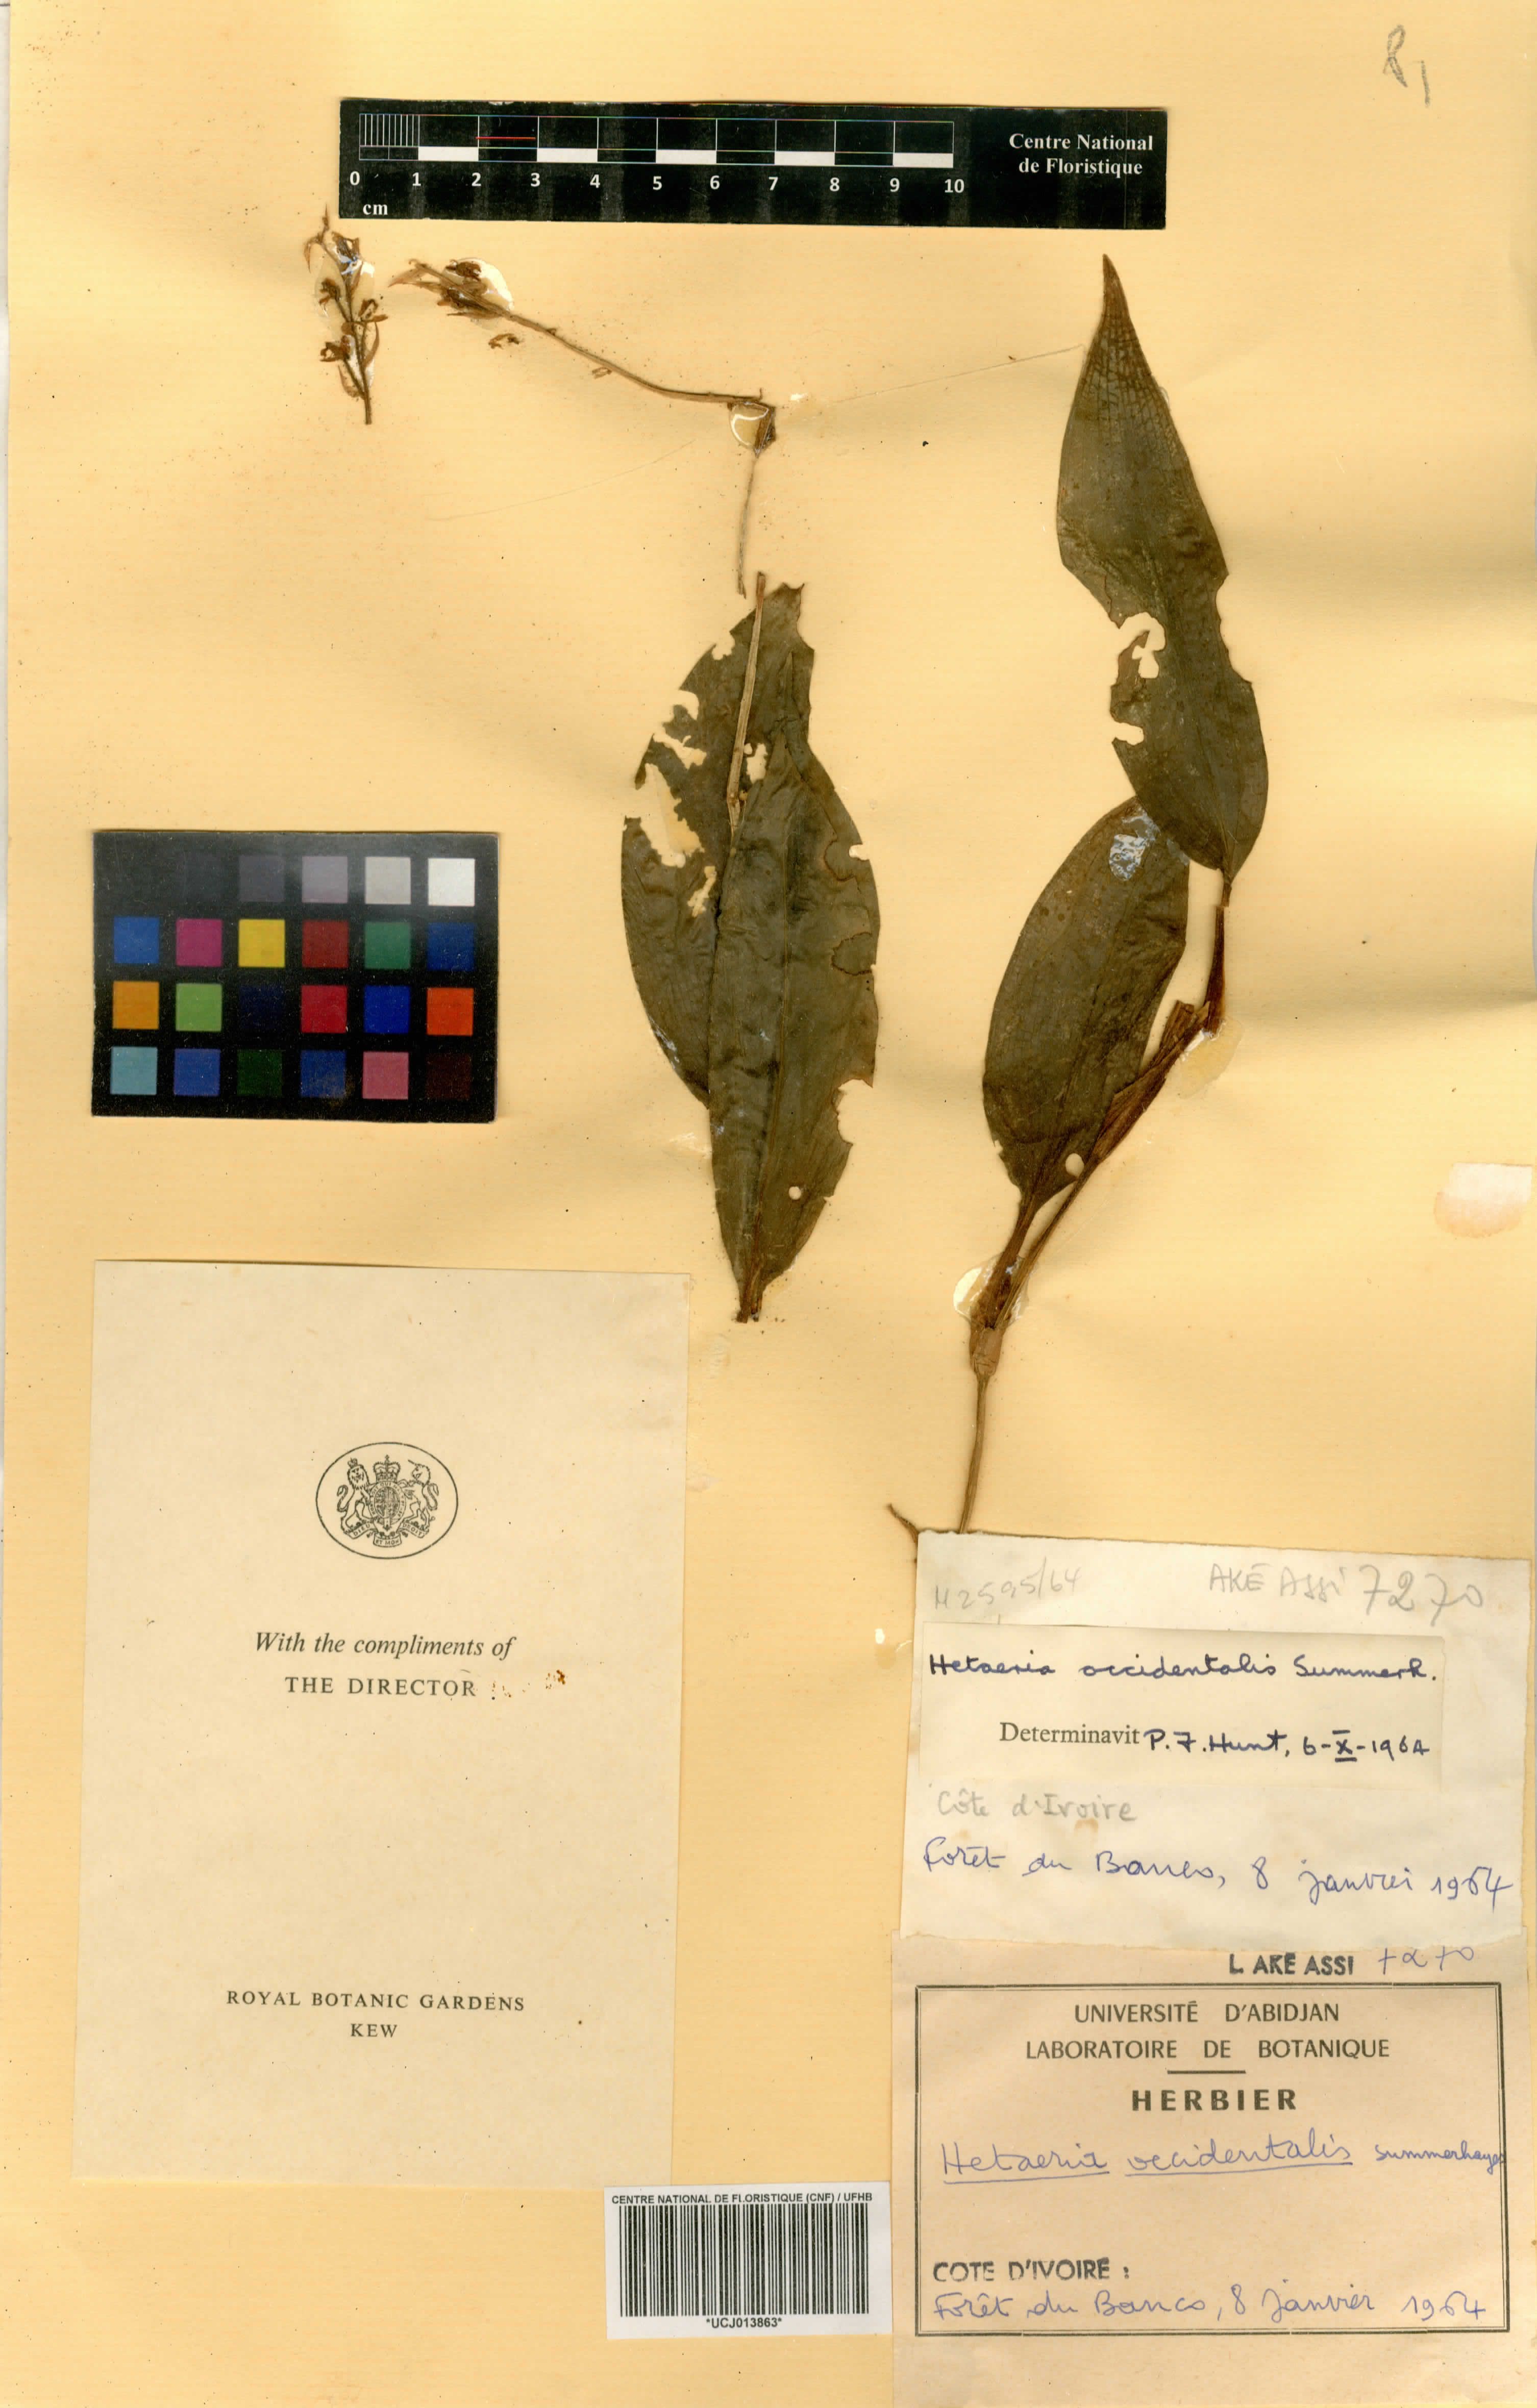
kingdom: Plantae
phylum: Tracheophyta
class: Liliopsida
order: Asparagales
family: Orchidaceae
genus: Hetaeria
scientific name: Hetaeria occidentalis
